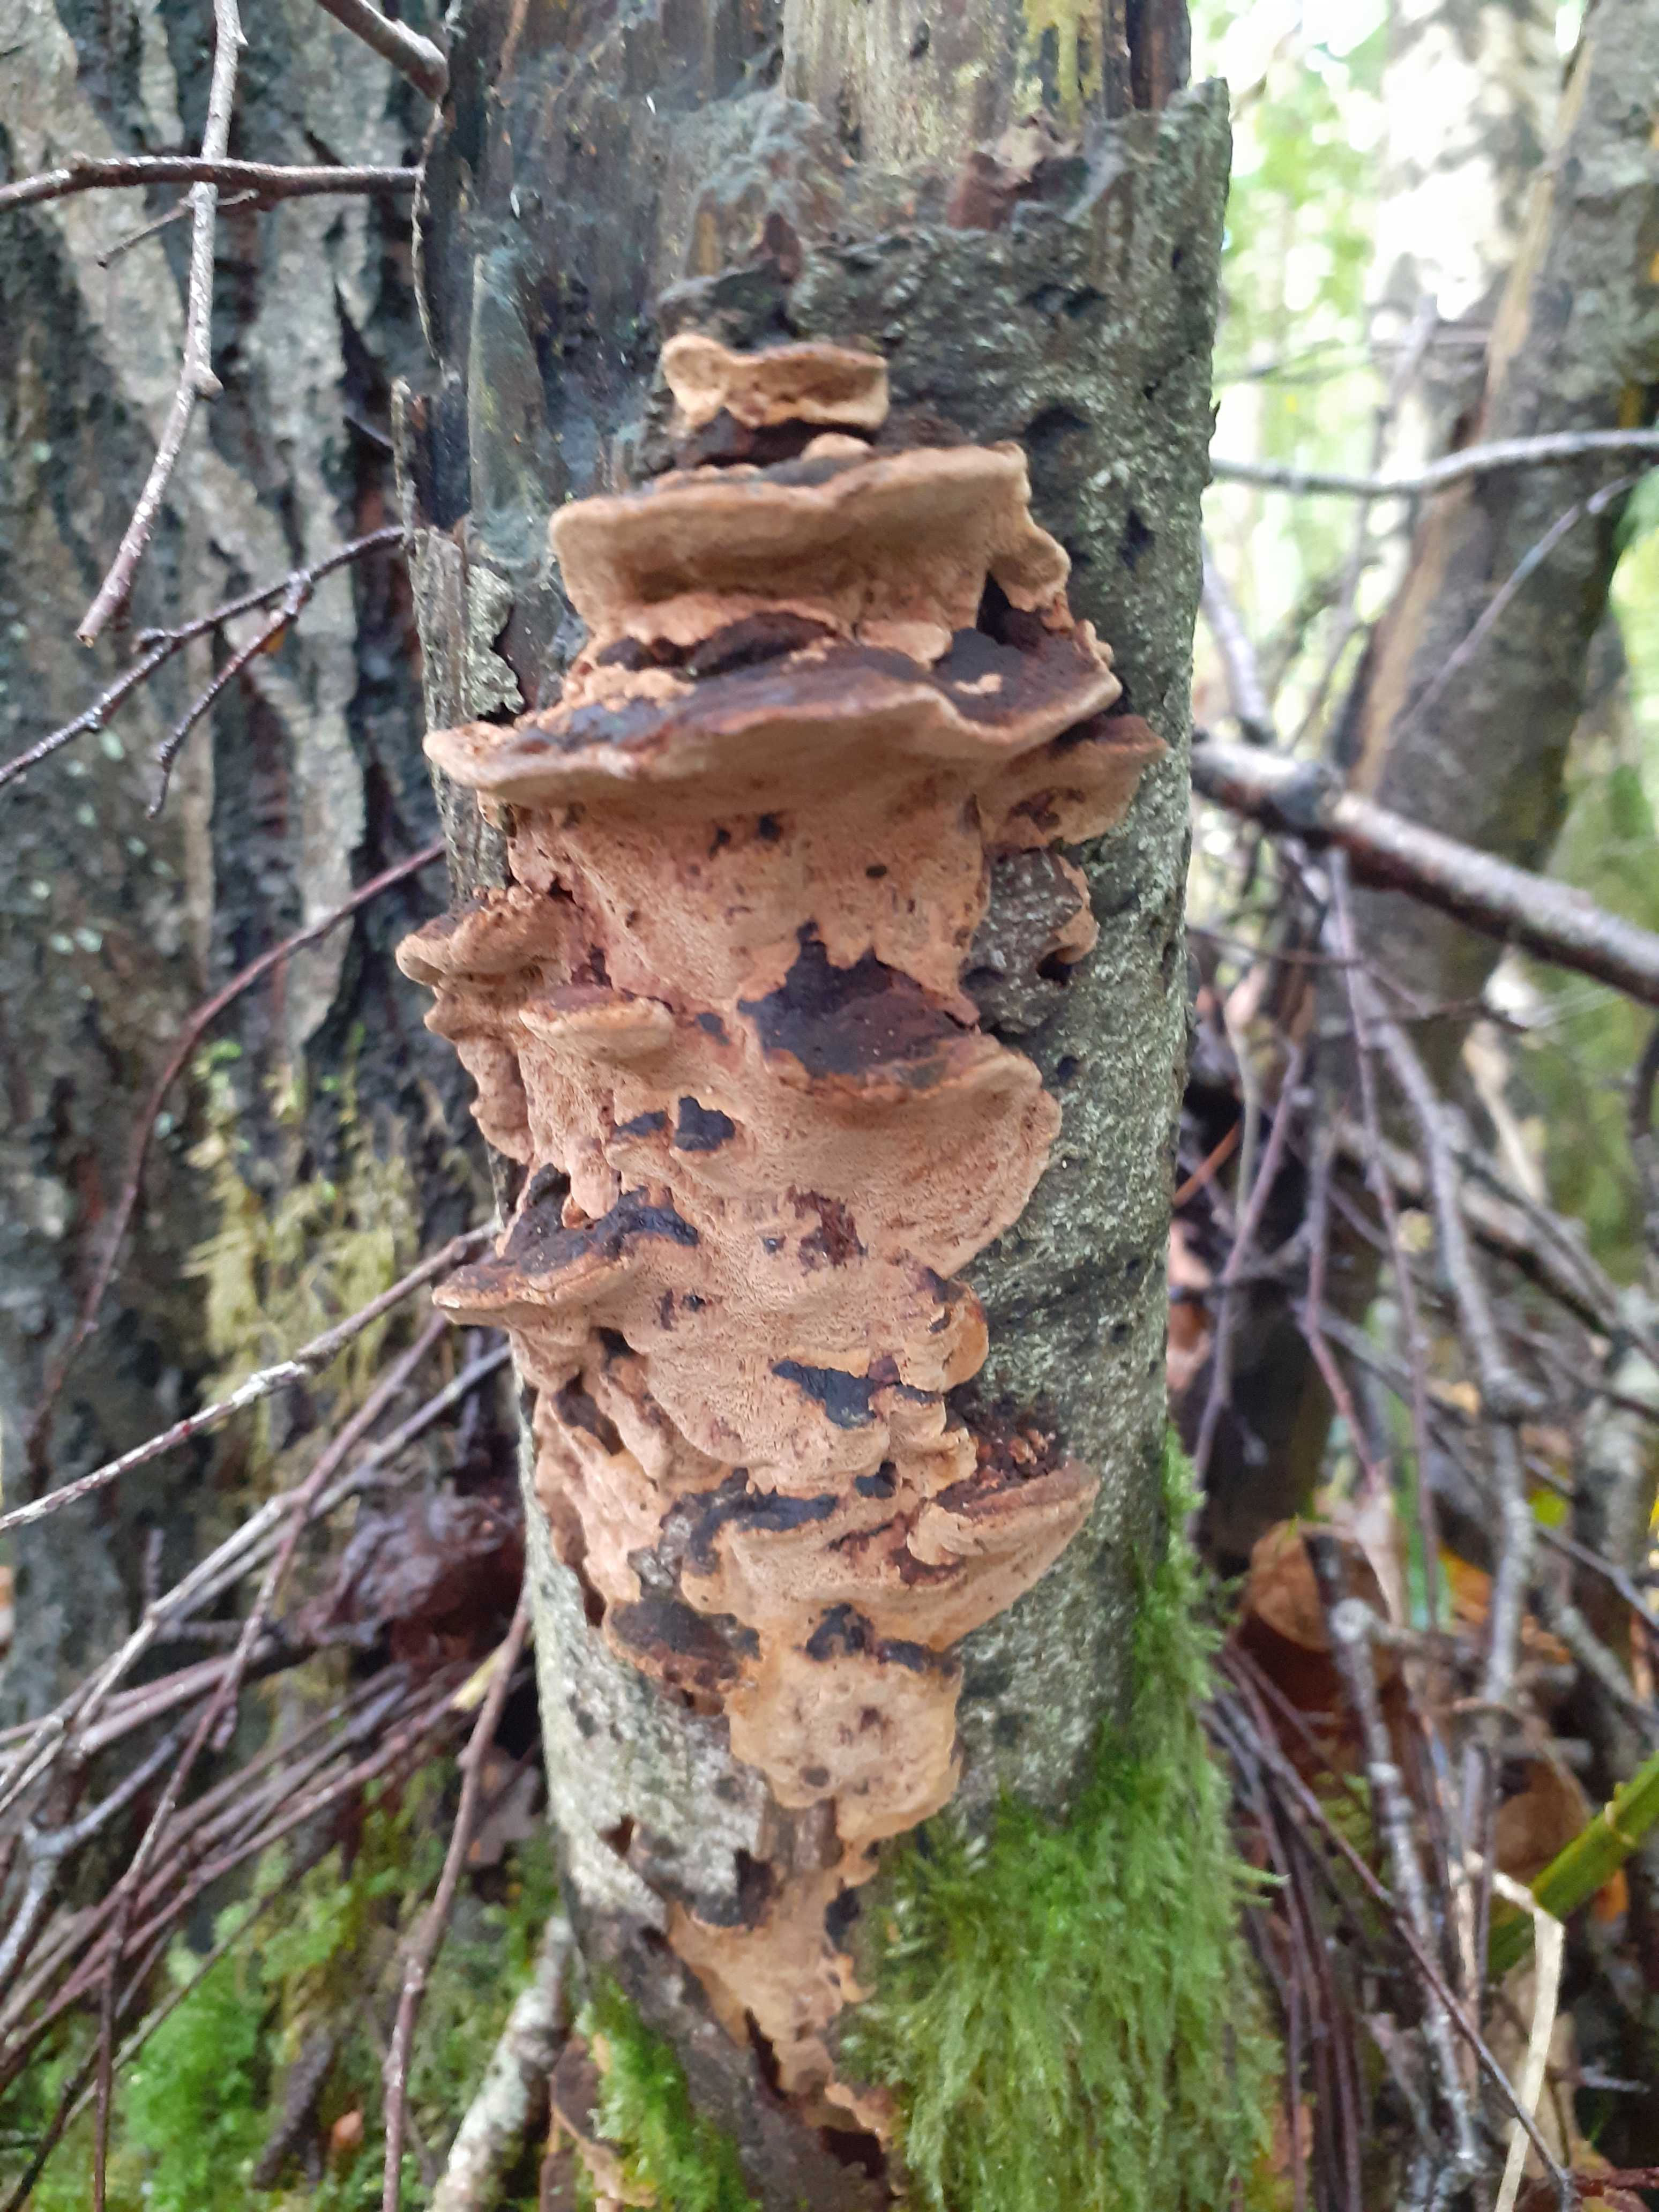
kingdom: Fungi
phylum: Basidiomycota
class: Agaricomycetes
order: Hymenochaetales
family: Hymenochaetaceae
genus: Phellinopsis
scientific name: Phellinopsis conchata
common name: pile-ildporesvamp
